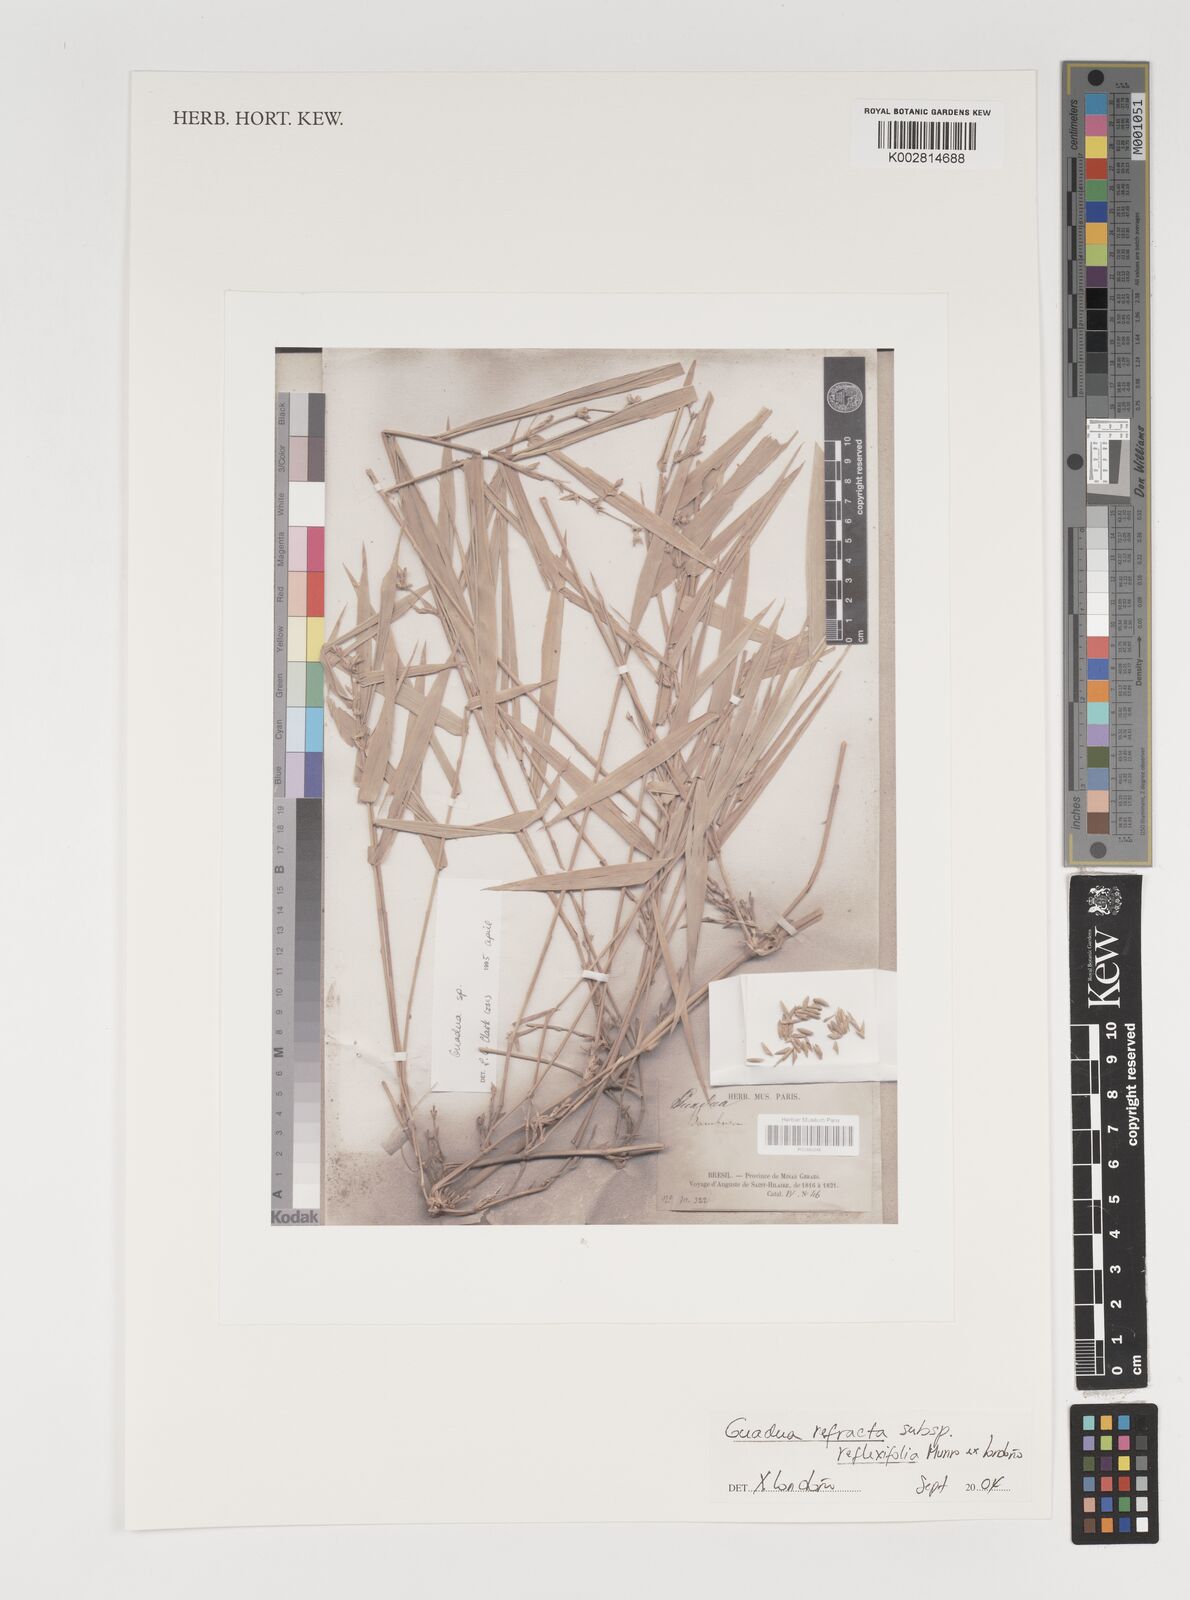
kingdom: Plantae
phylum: Tracheophyta
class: Liliopsida
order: Poales
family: Poaceae
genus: Guadua
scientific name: Guadua refracta
